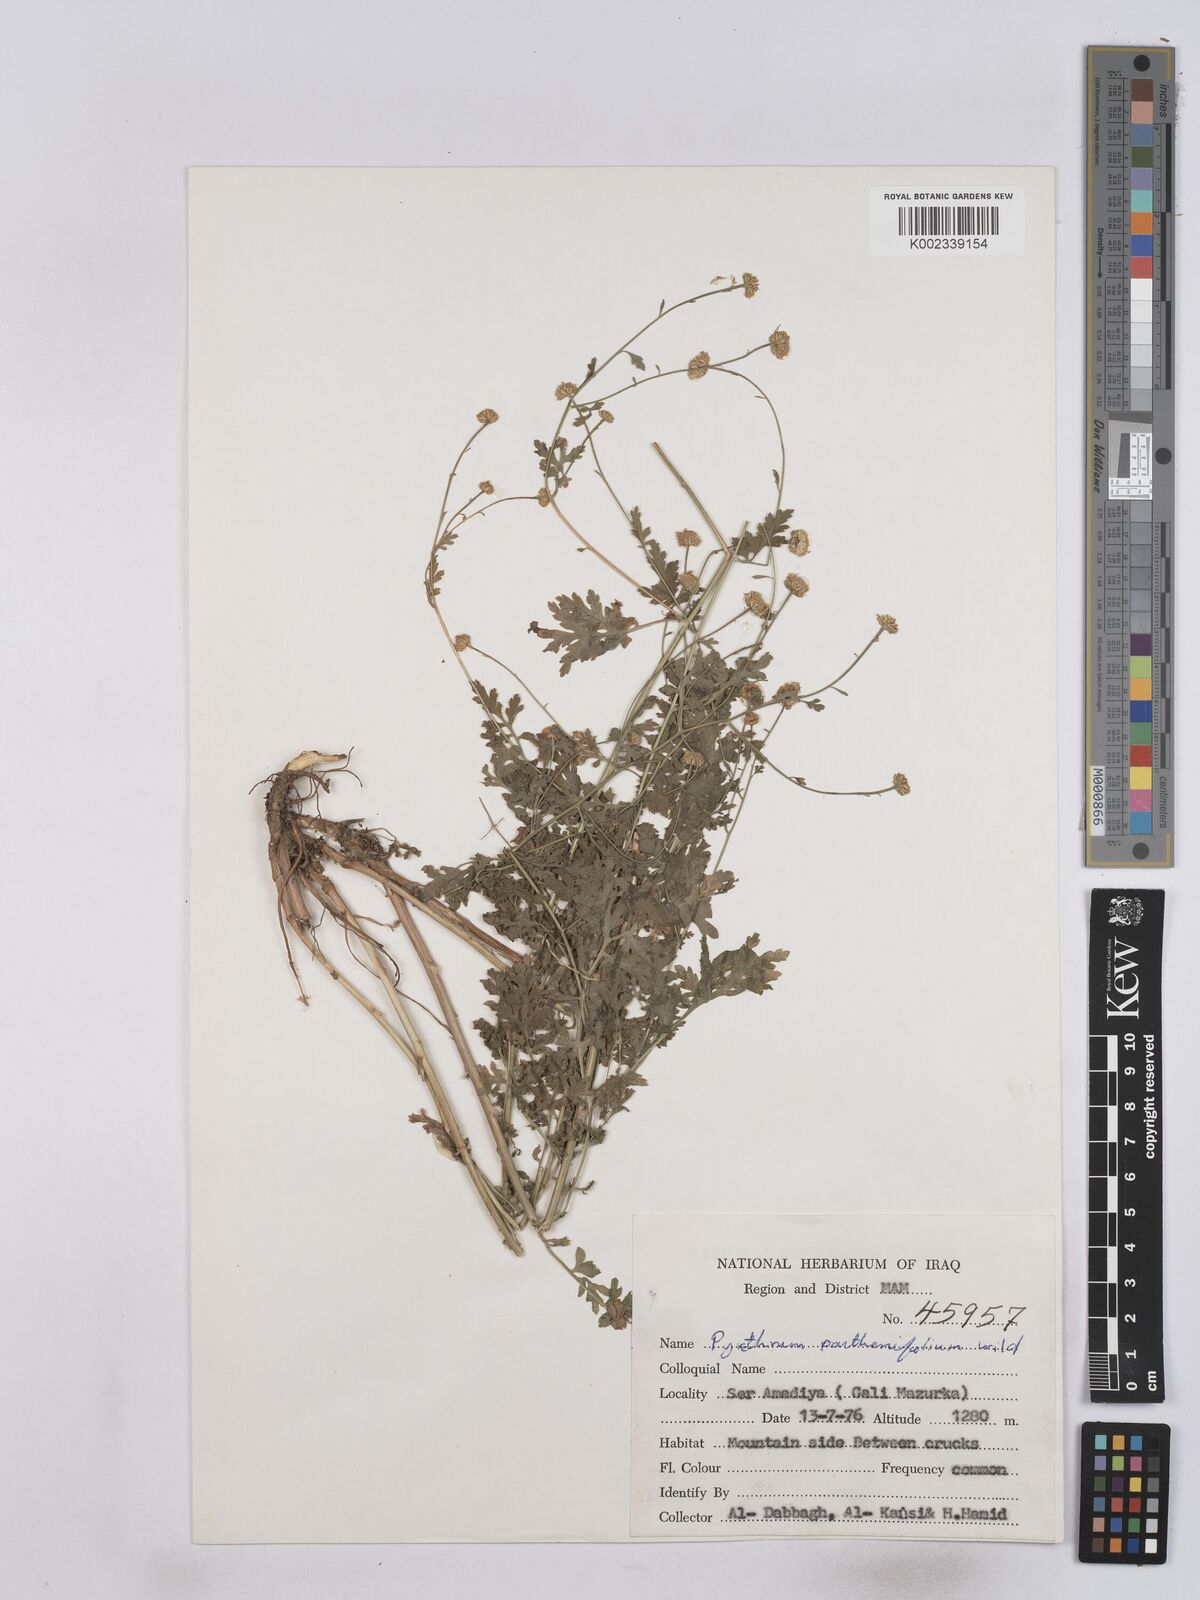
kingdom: Plantae
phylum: Tracheophyta
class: Magnoliopsida
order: Asterales
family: Asteraceae
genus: Tanacetum
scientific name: Tanacetum partheniifolium
